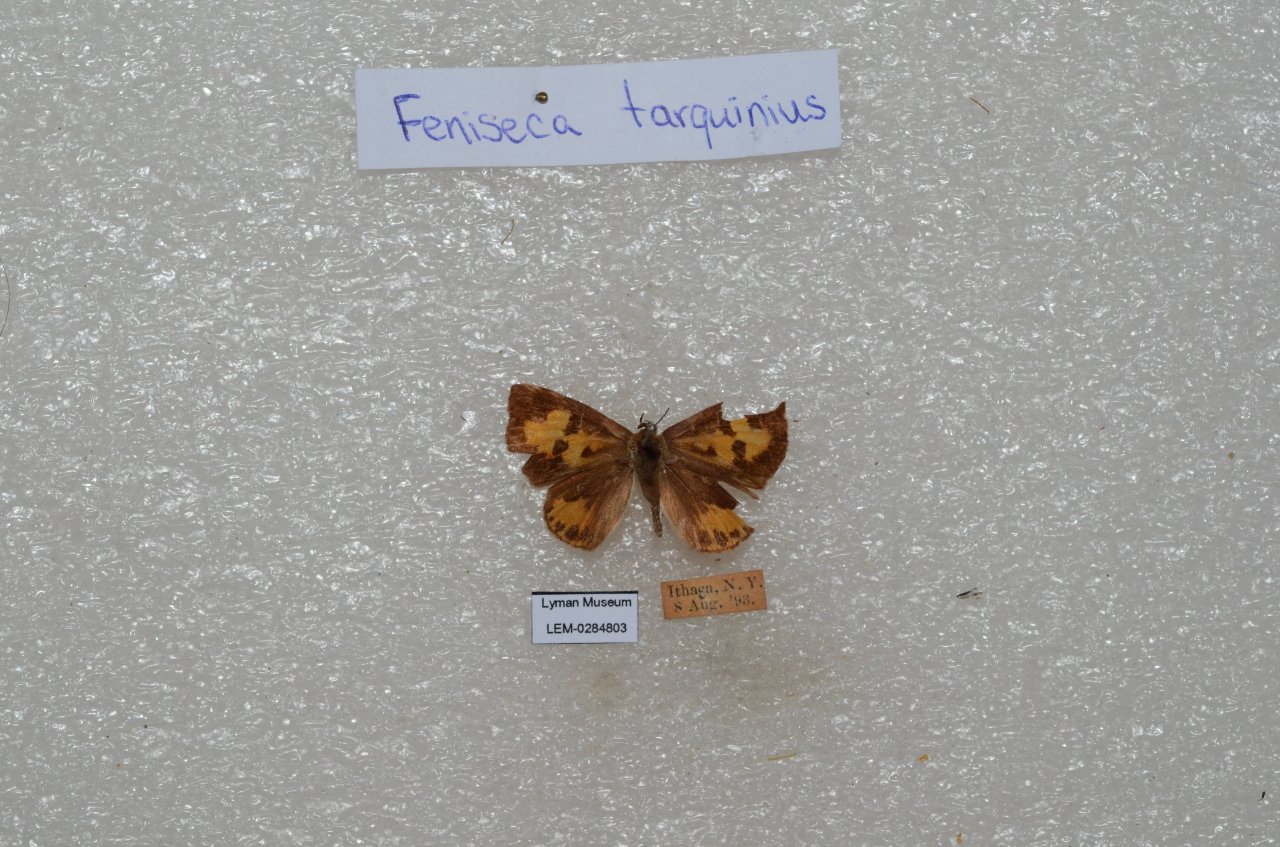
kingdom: Animalia
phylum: Arthropoda
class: Insecta
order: Lepidoptera
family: Lycaenidae
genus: Feniseca
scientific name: Feniseca tarquinius
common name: Harvester
